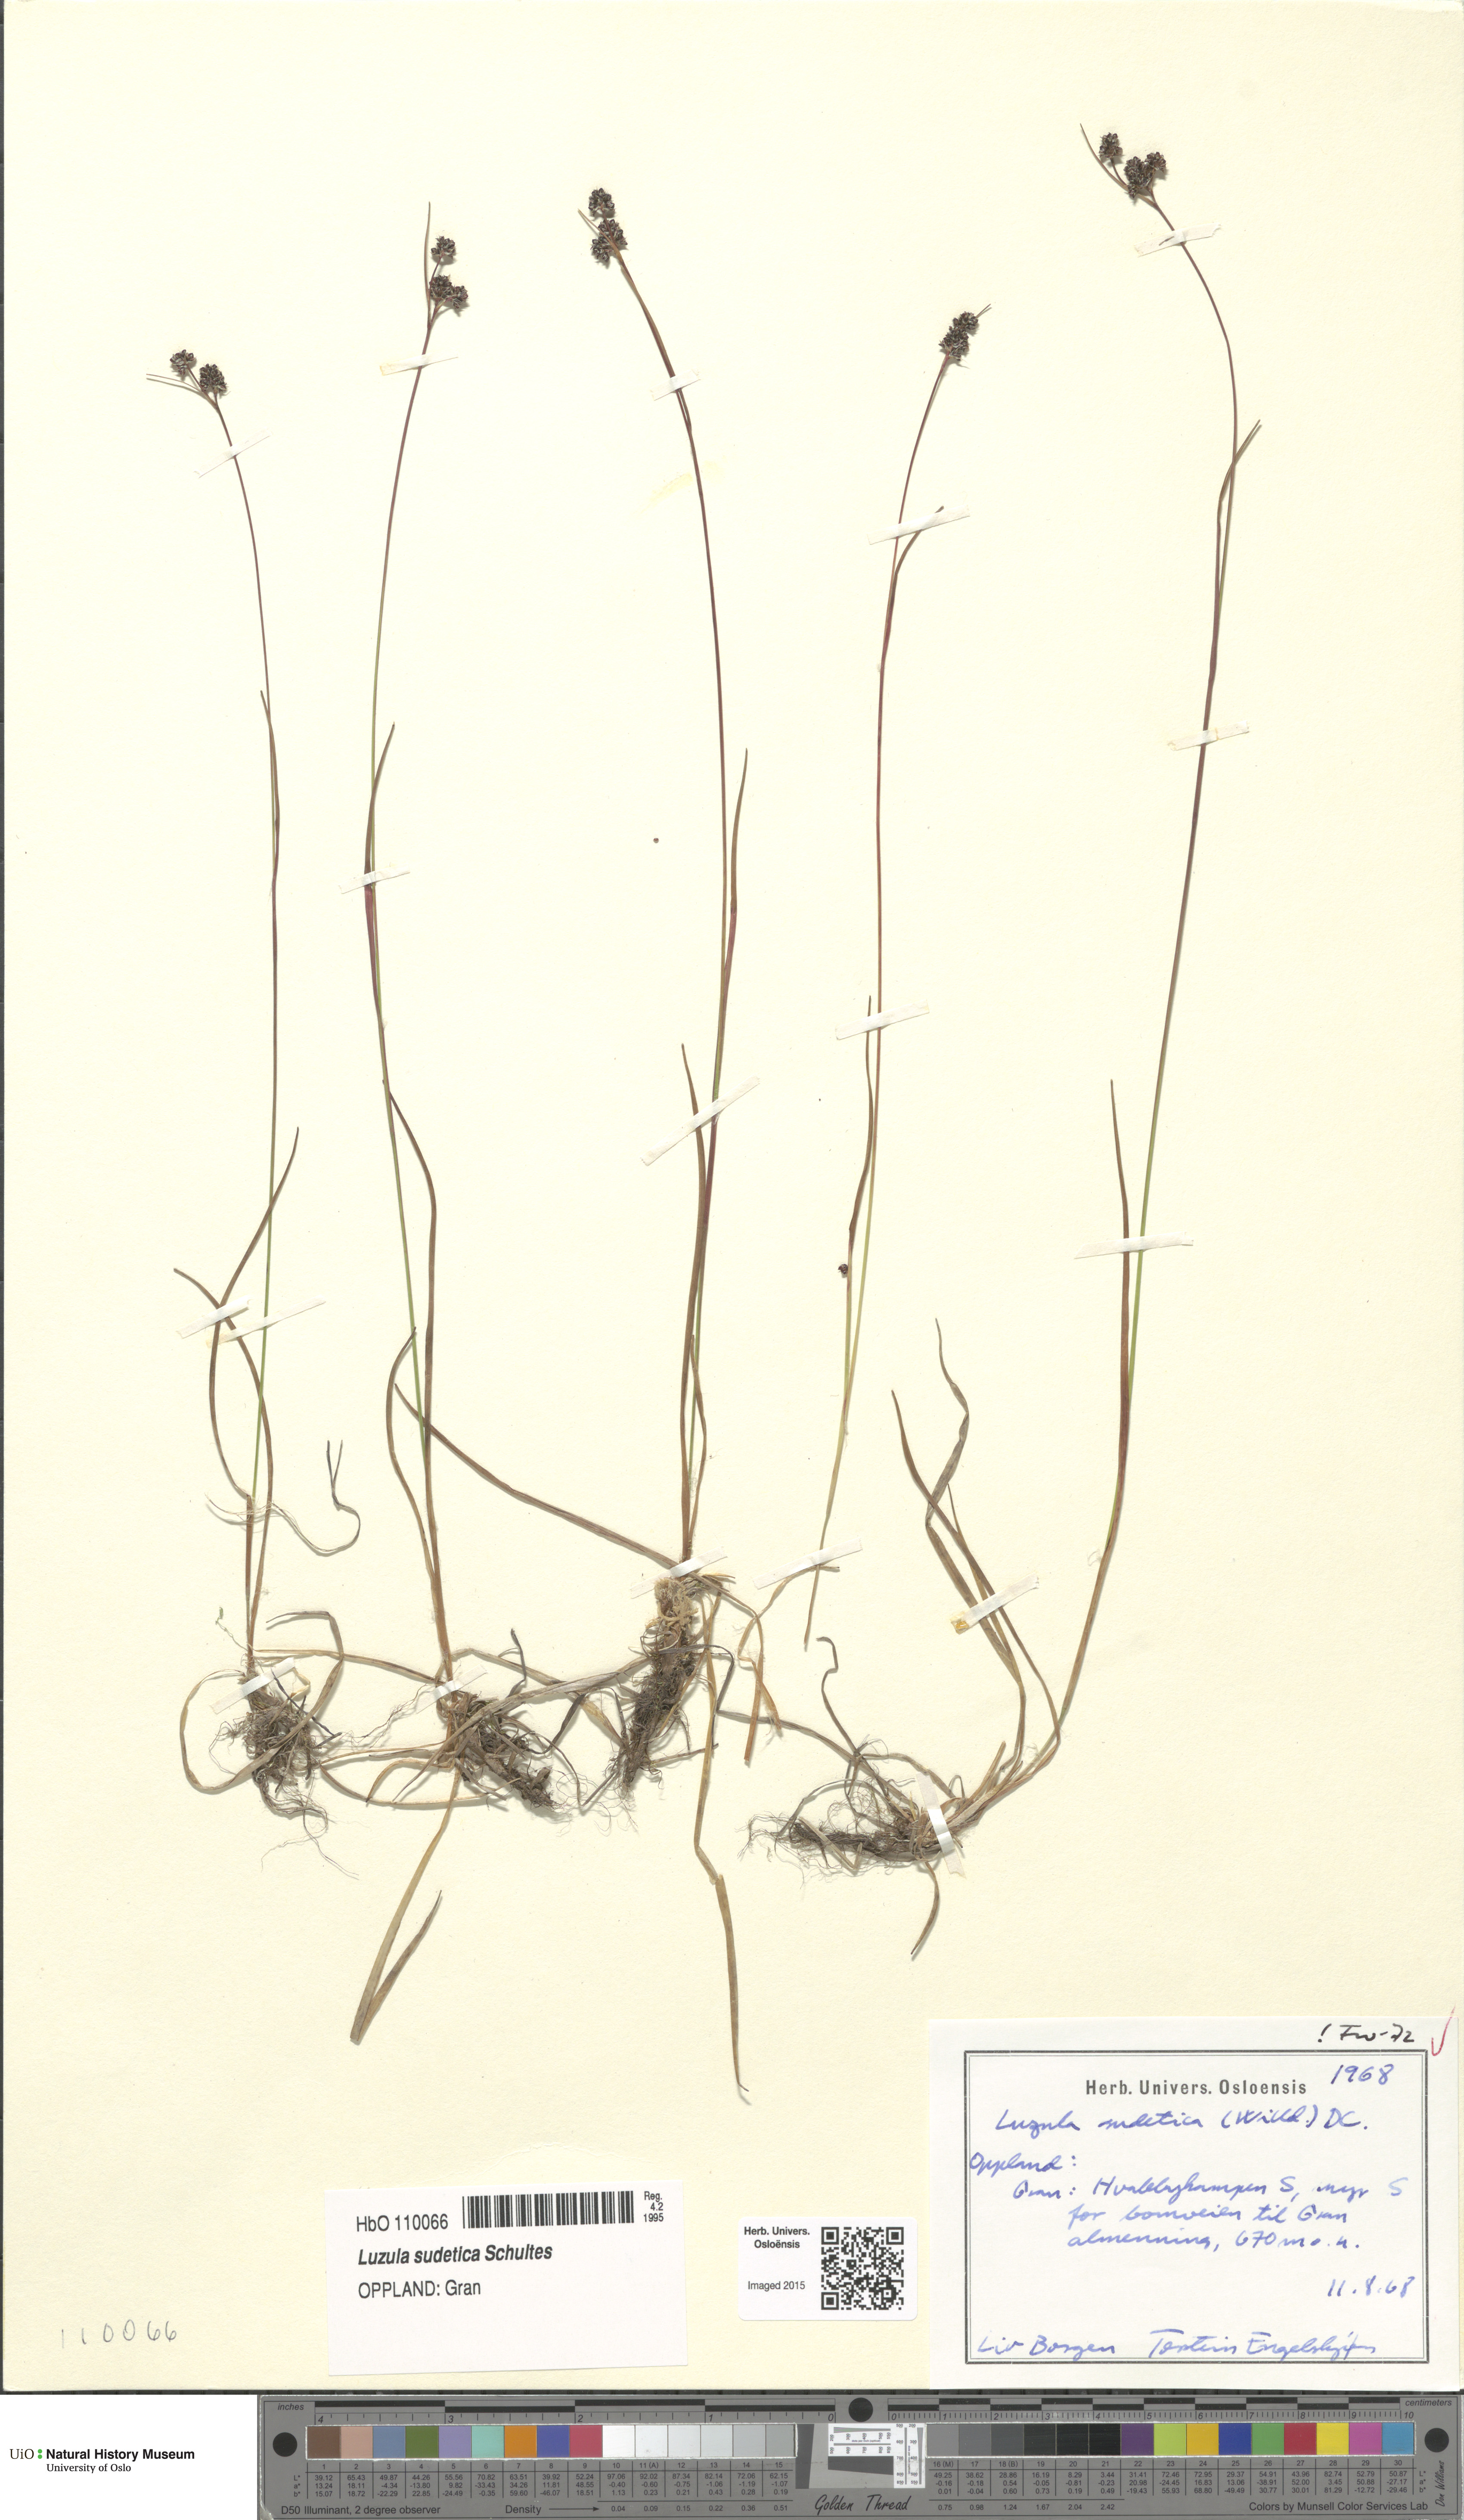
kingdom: Plantae
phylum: Tracheophyta
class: Liliopsida
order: Poales
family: Juncaceae
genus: Luzula
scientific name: Luzula sudetica
